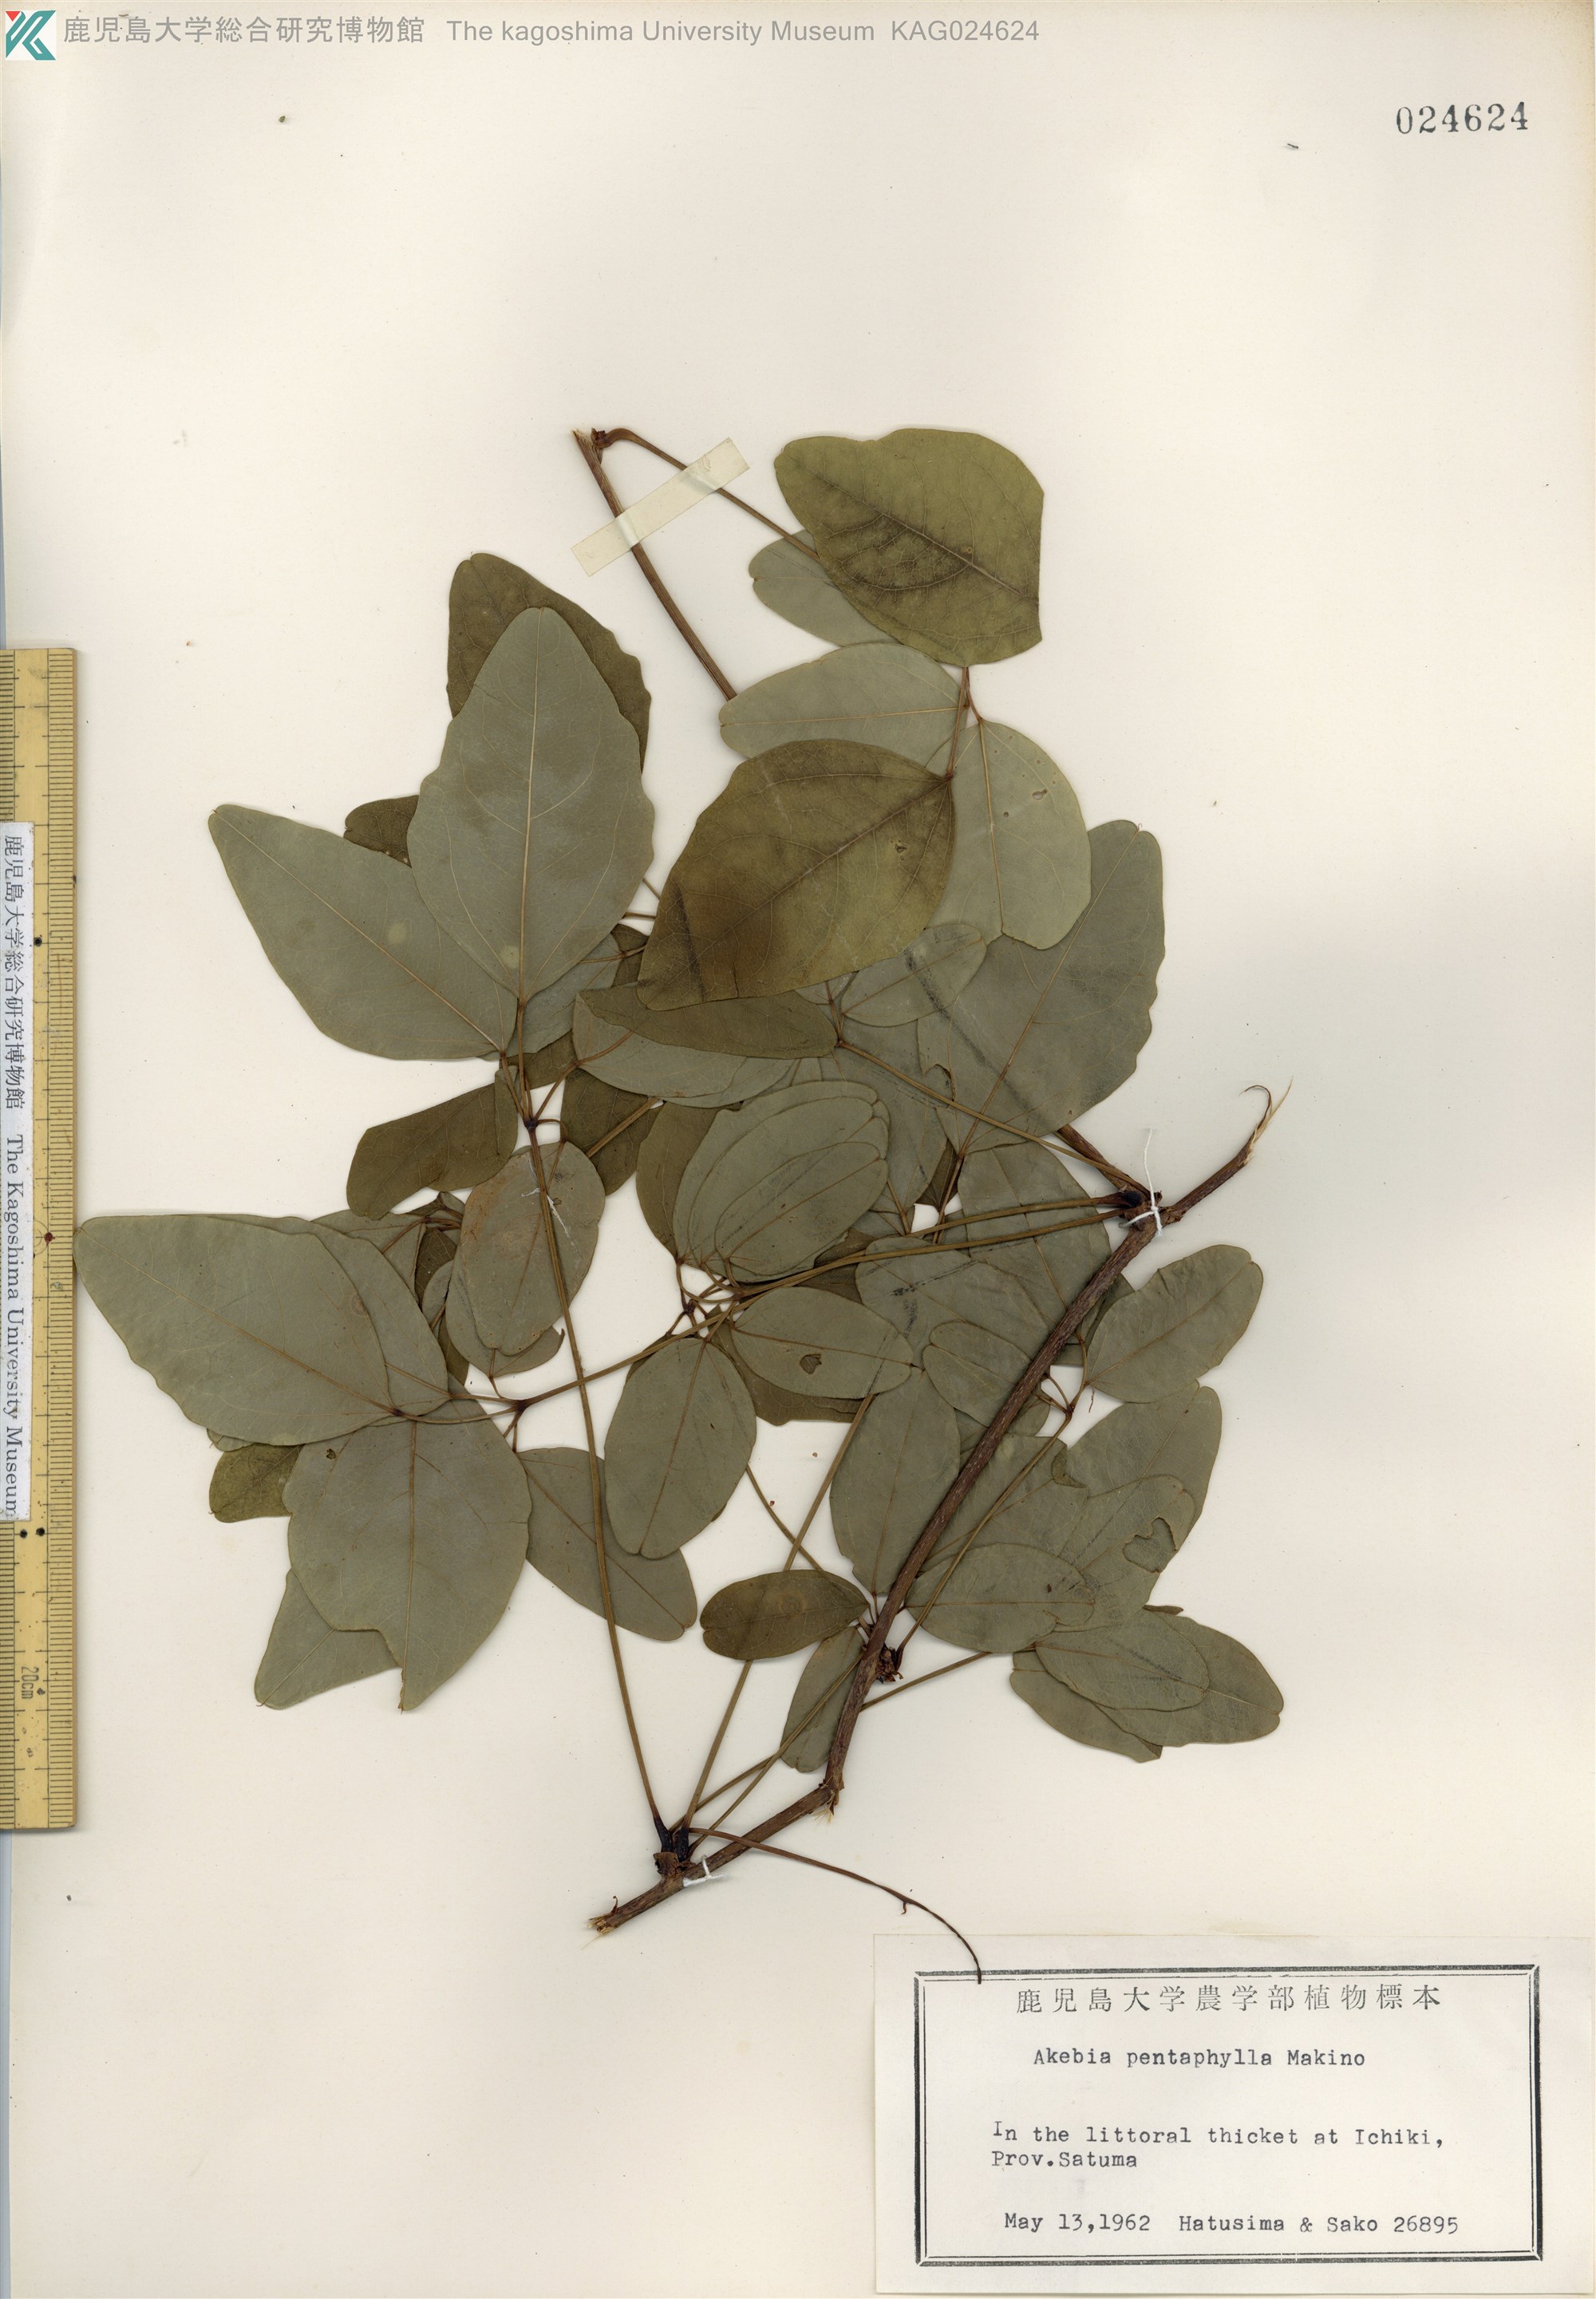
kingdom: Plantae
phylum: Tracheophyta
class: Magnoliopsida
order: Ranunculales
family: Lardizabalaceae
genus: Akebia
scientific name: Akebia pentaphylla
